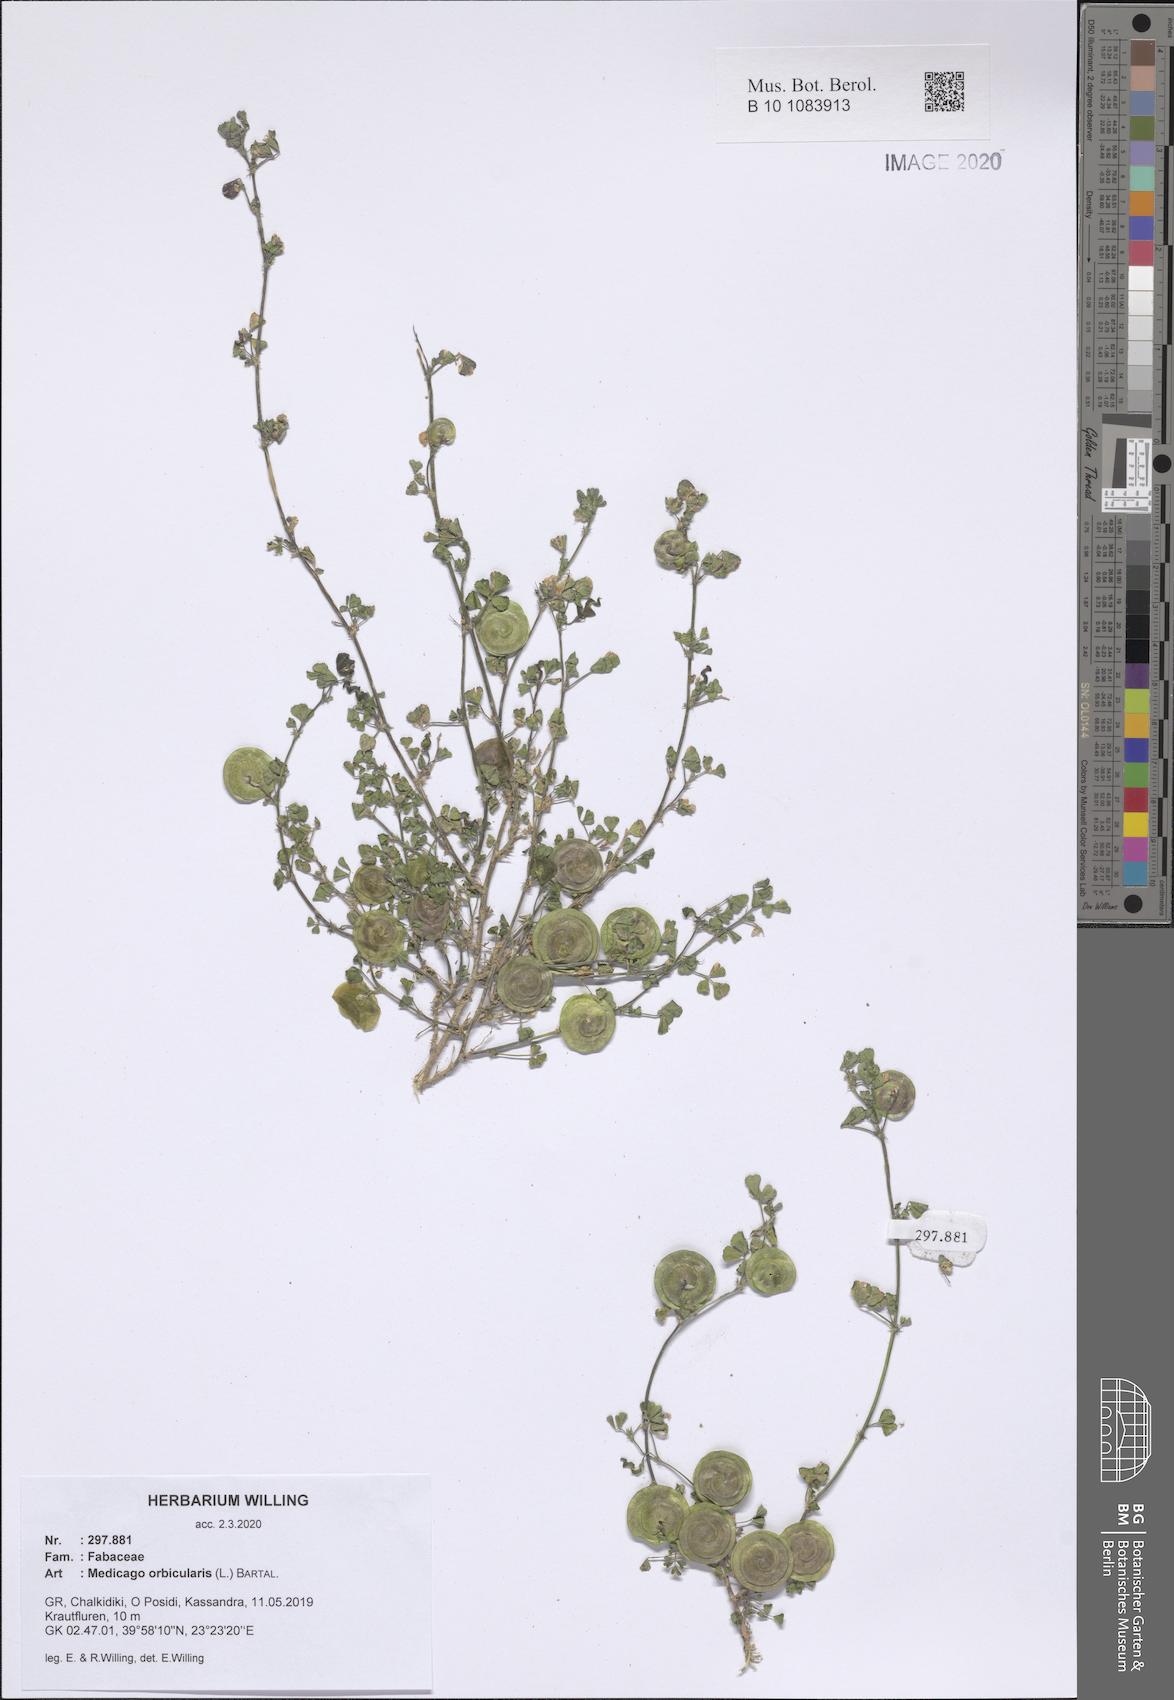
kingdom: Plantae
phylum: Tracheophyta
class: Magnoliopsida
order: Fabales
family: Fabaceae
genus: Medicago
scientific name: Medicago orbicularis
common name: Button medick
